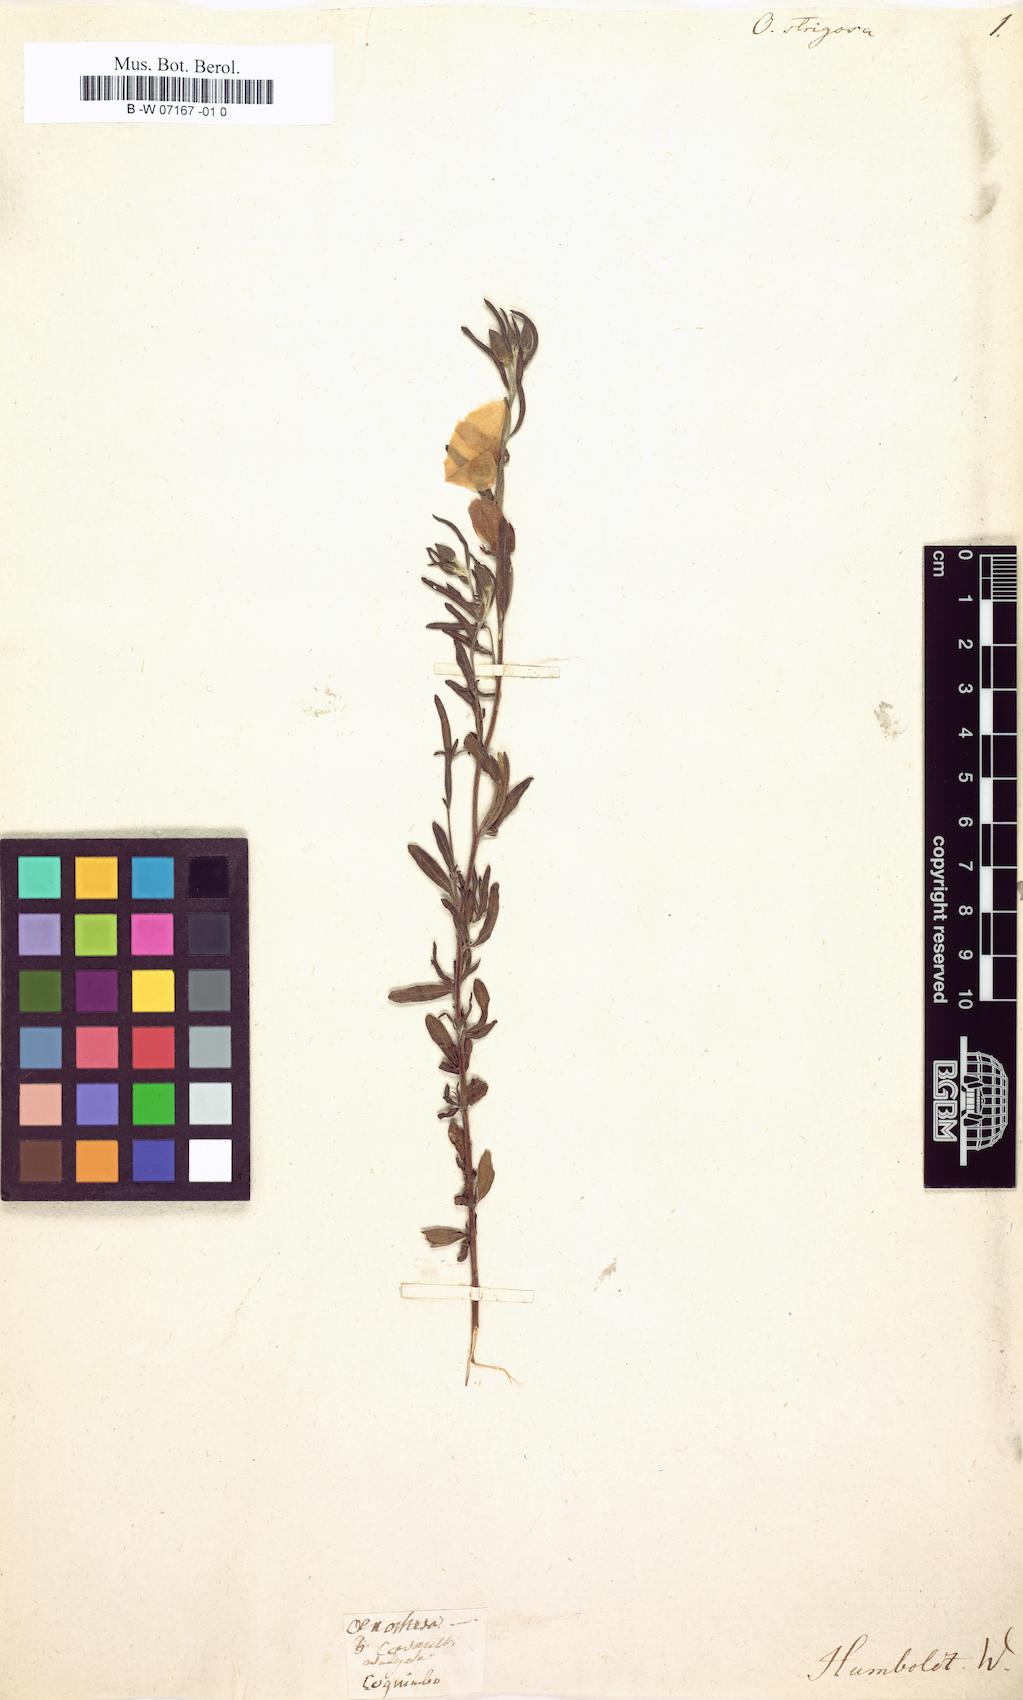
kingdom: Plantae
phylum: Tracheophyta
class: Magnoliopsida
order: Myrtales
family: Onagraceae
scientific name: Onagraceae
